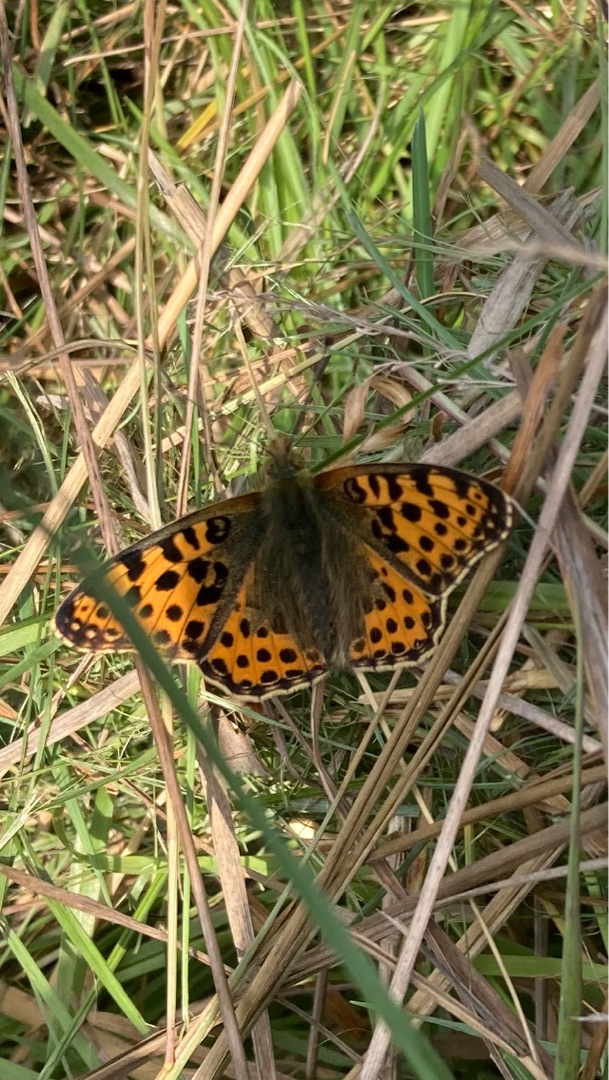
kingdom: Animalia
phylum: Arthropoda
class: Insecta
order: Lepidoptera
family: Nymphalidae
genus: Issoria
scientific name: Issoria lathonia
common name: Storplettet perlemorsommerfugl
